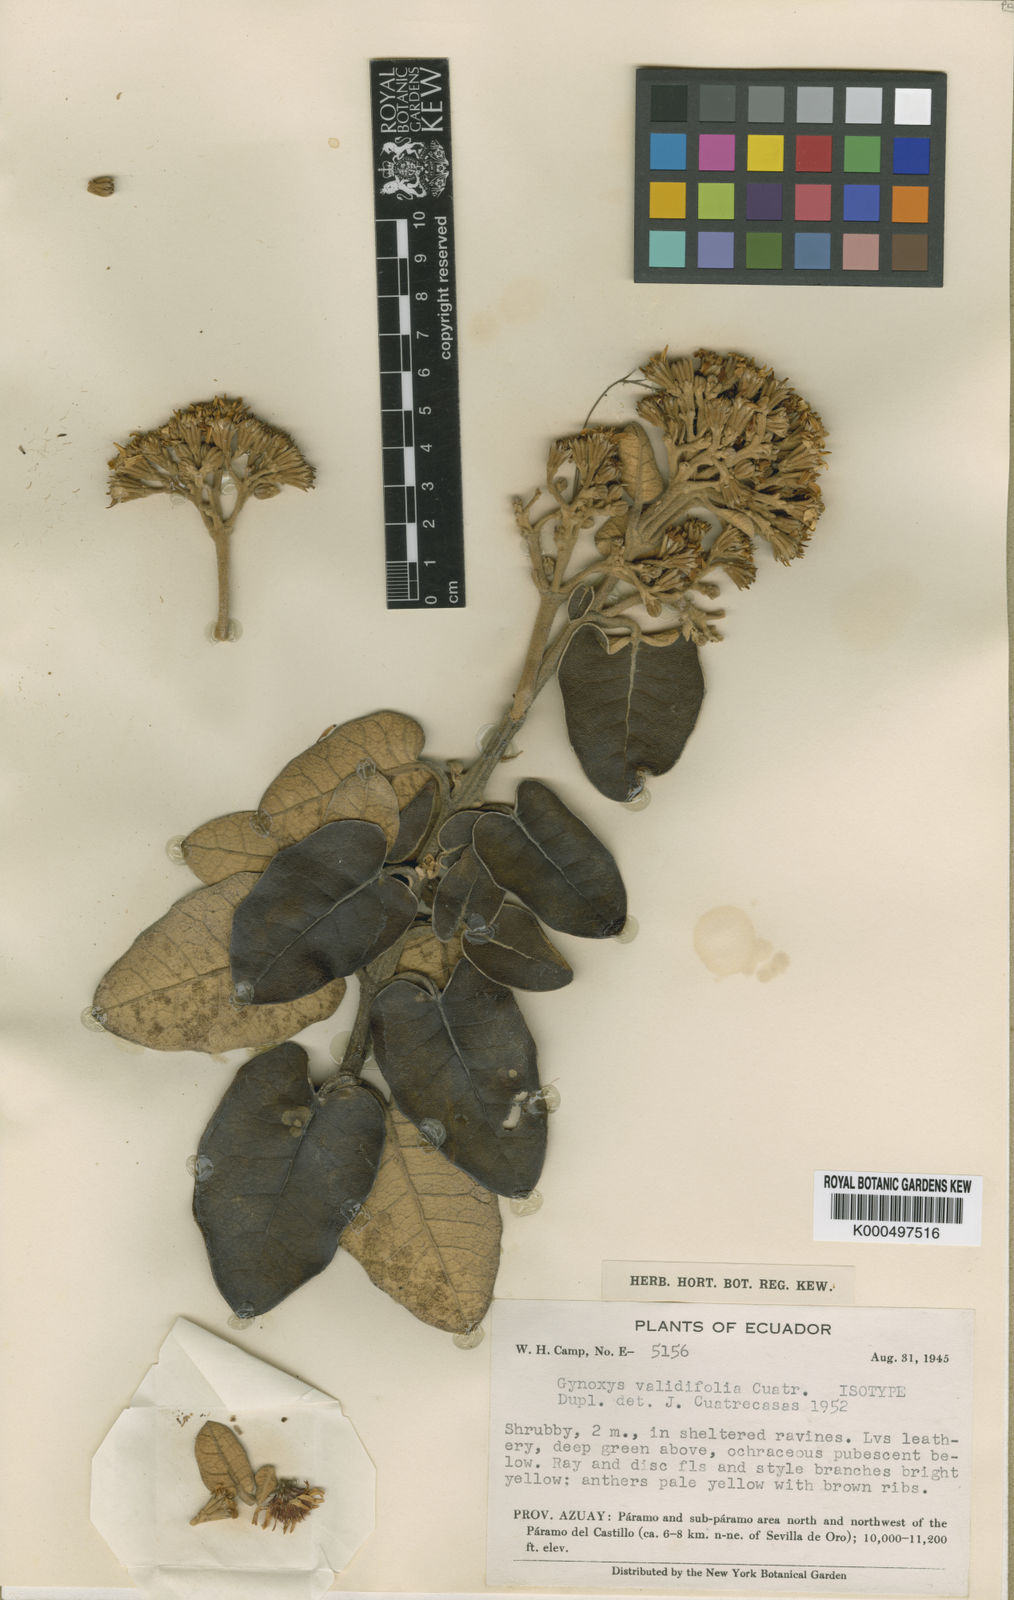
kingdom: Plantae
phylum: Tracheophyta
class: Magnoliopsida
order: Asterales
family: Asteraceae
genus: Gynoxys
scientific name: Gynoxys validifolia
